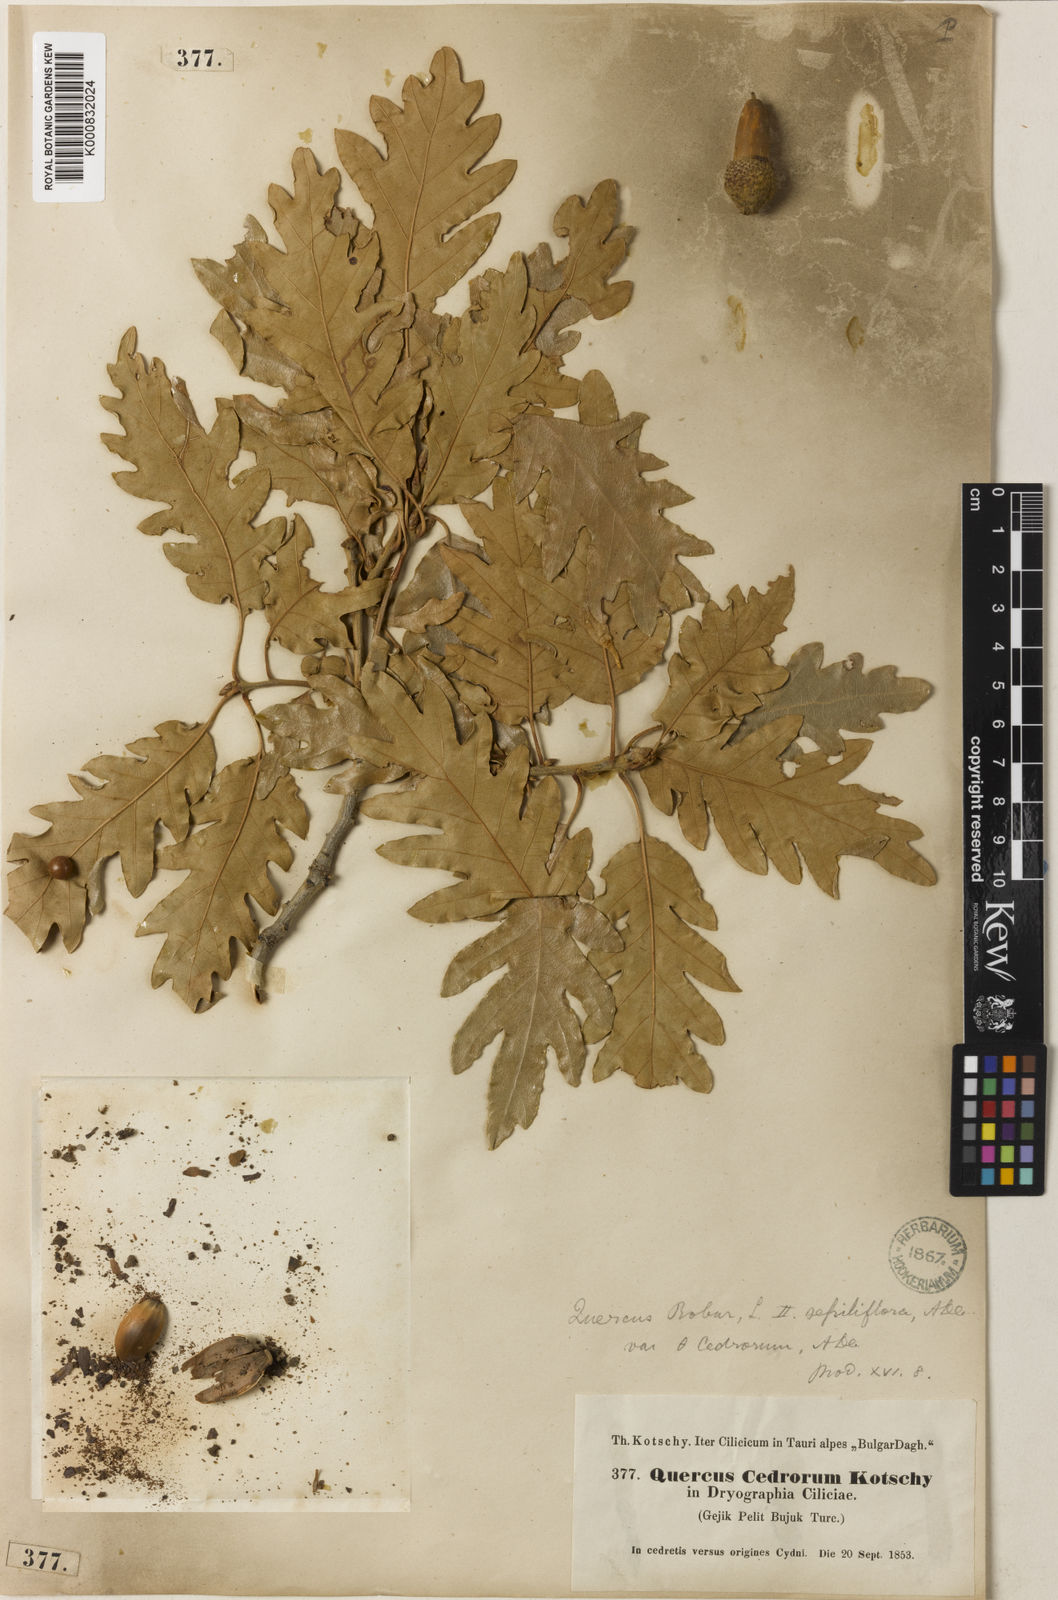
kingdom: Plantae
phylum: Tracheophyta
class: Magnoliopsida
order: Fagales
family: Fagaceae
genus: Quercus
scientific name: Quercus petraea
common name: Sessile oak
